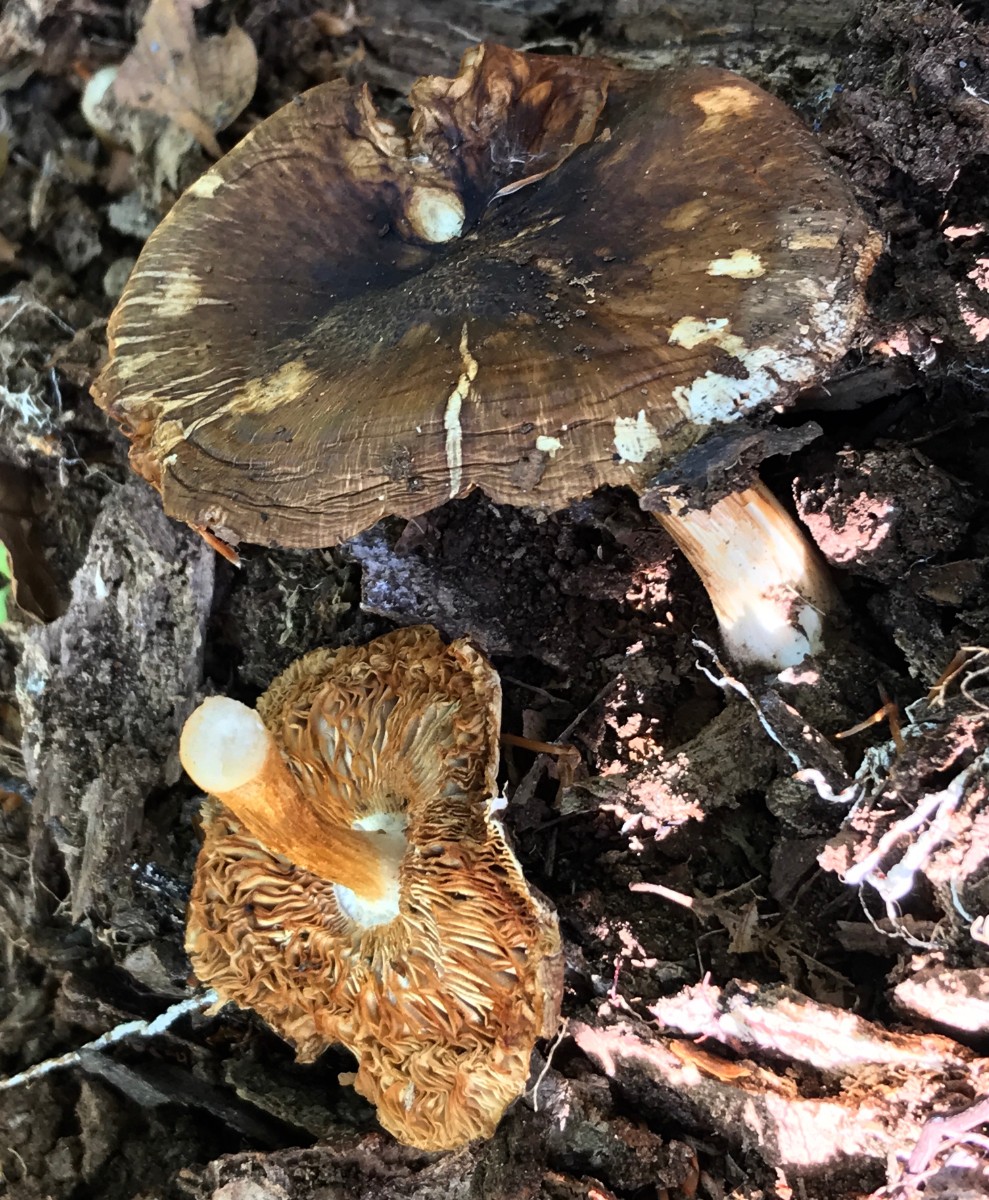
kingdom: Fungi
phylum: Basidiomycota
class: Agaricomycetes
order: Agaricales
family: Pluteaceae
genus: Pluteus
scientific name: Pluteus
